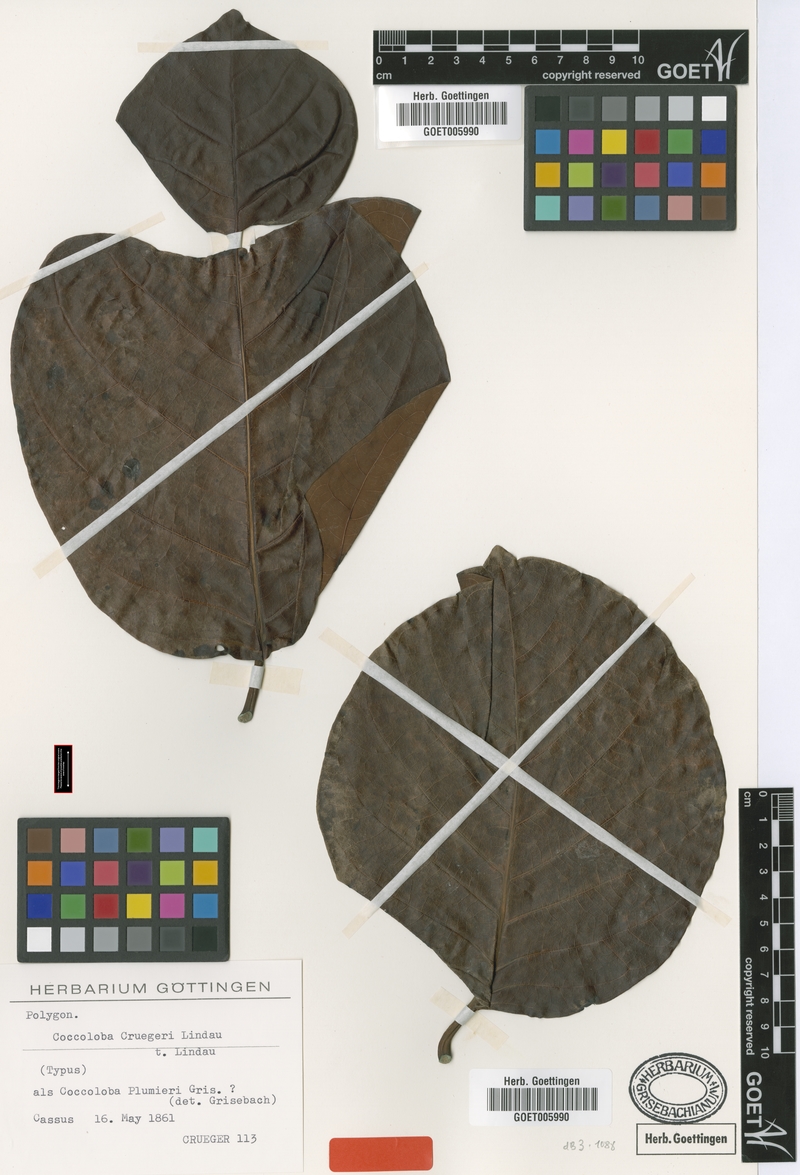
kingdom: Plantae
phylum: Tracheophyta
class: Magnoliopsida
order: Caryophyllales
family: Polygonaceae
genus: Coccoloba
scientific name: Coccoloba cruegeri
